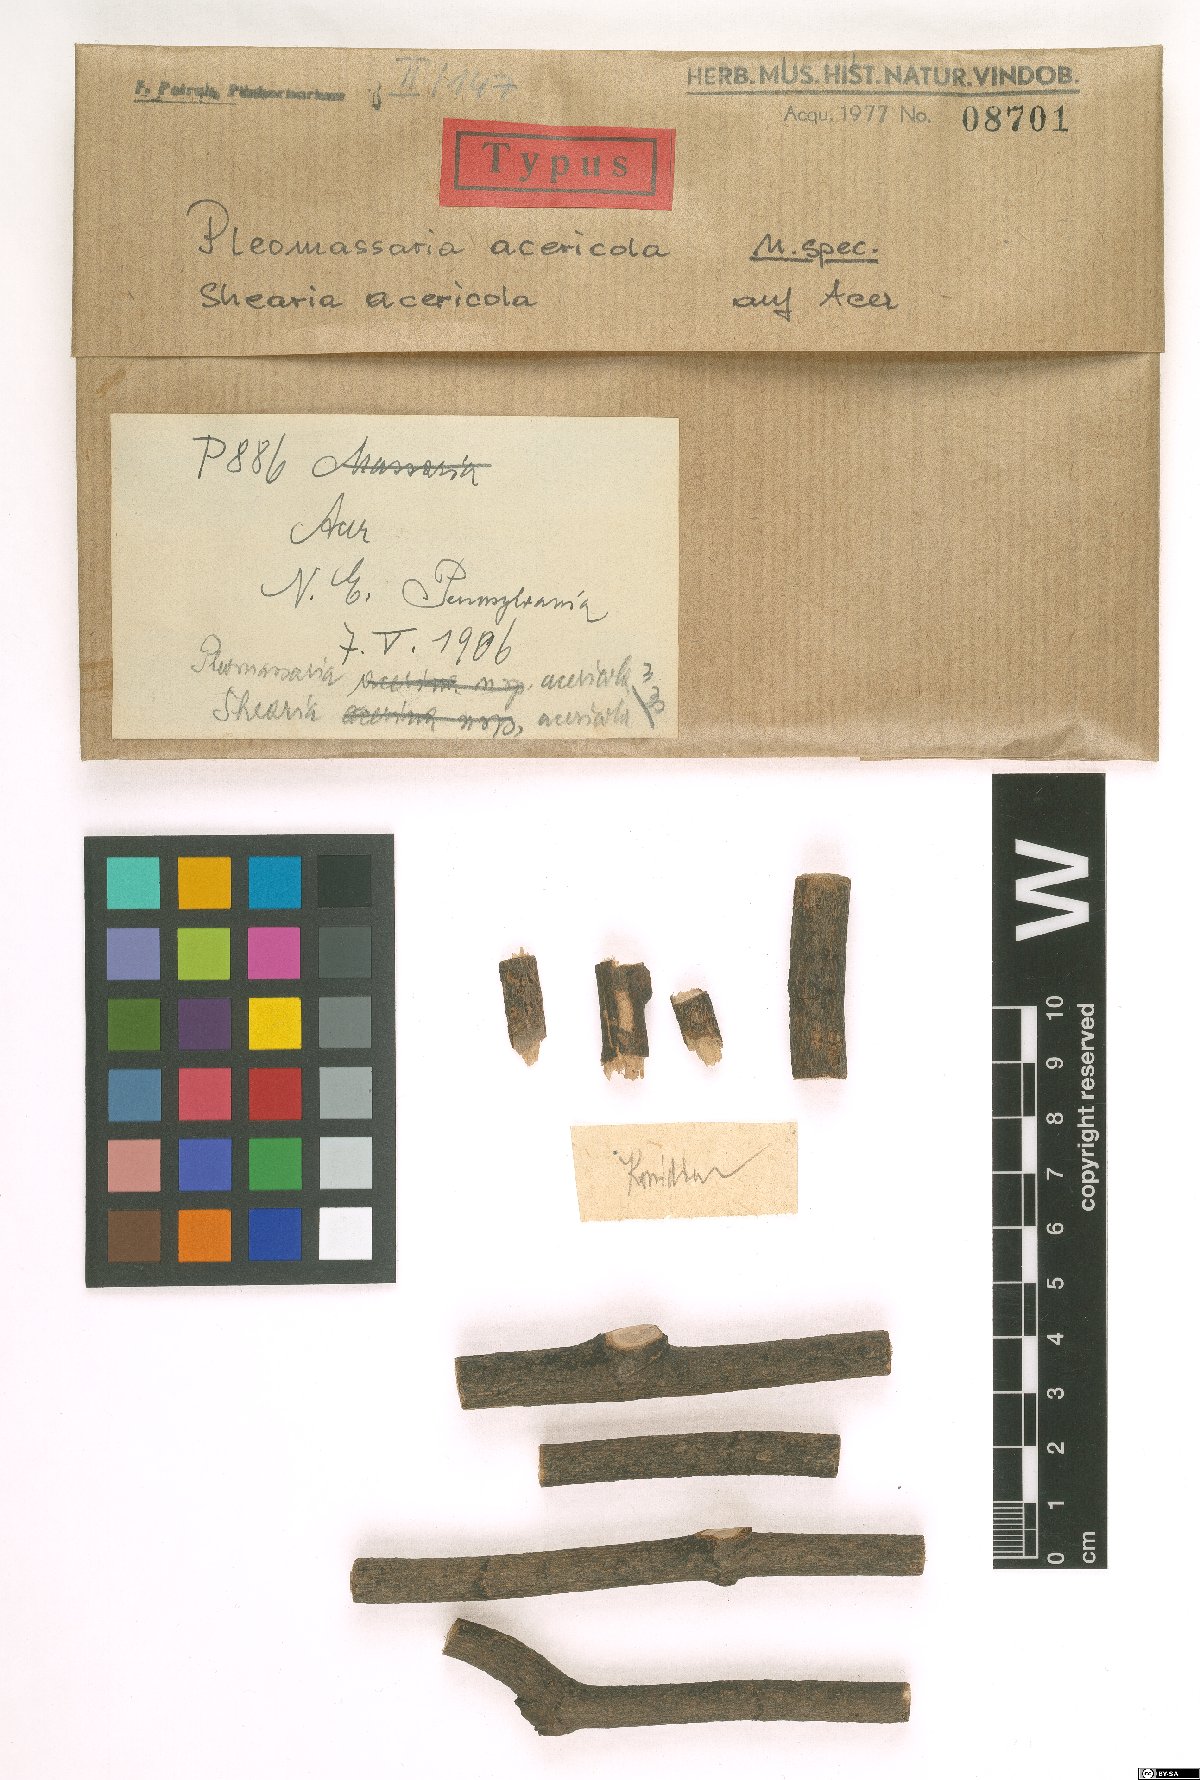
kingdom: Fungi
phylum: Ascomycota
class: Dothideomycetes
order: Pleosporales
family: Pleomassariaceae
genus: Pleomassaria
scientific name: Pleomassaria acericola
